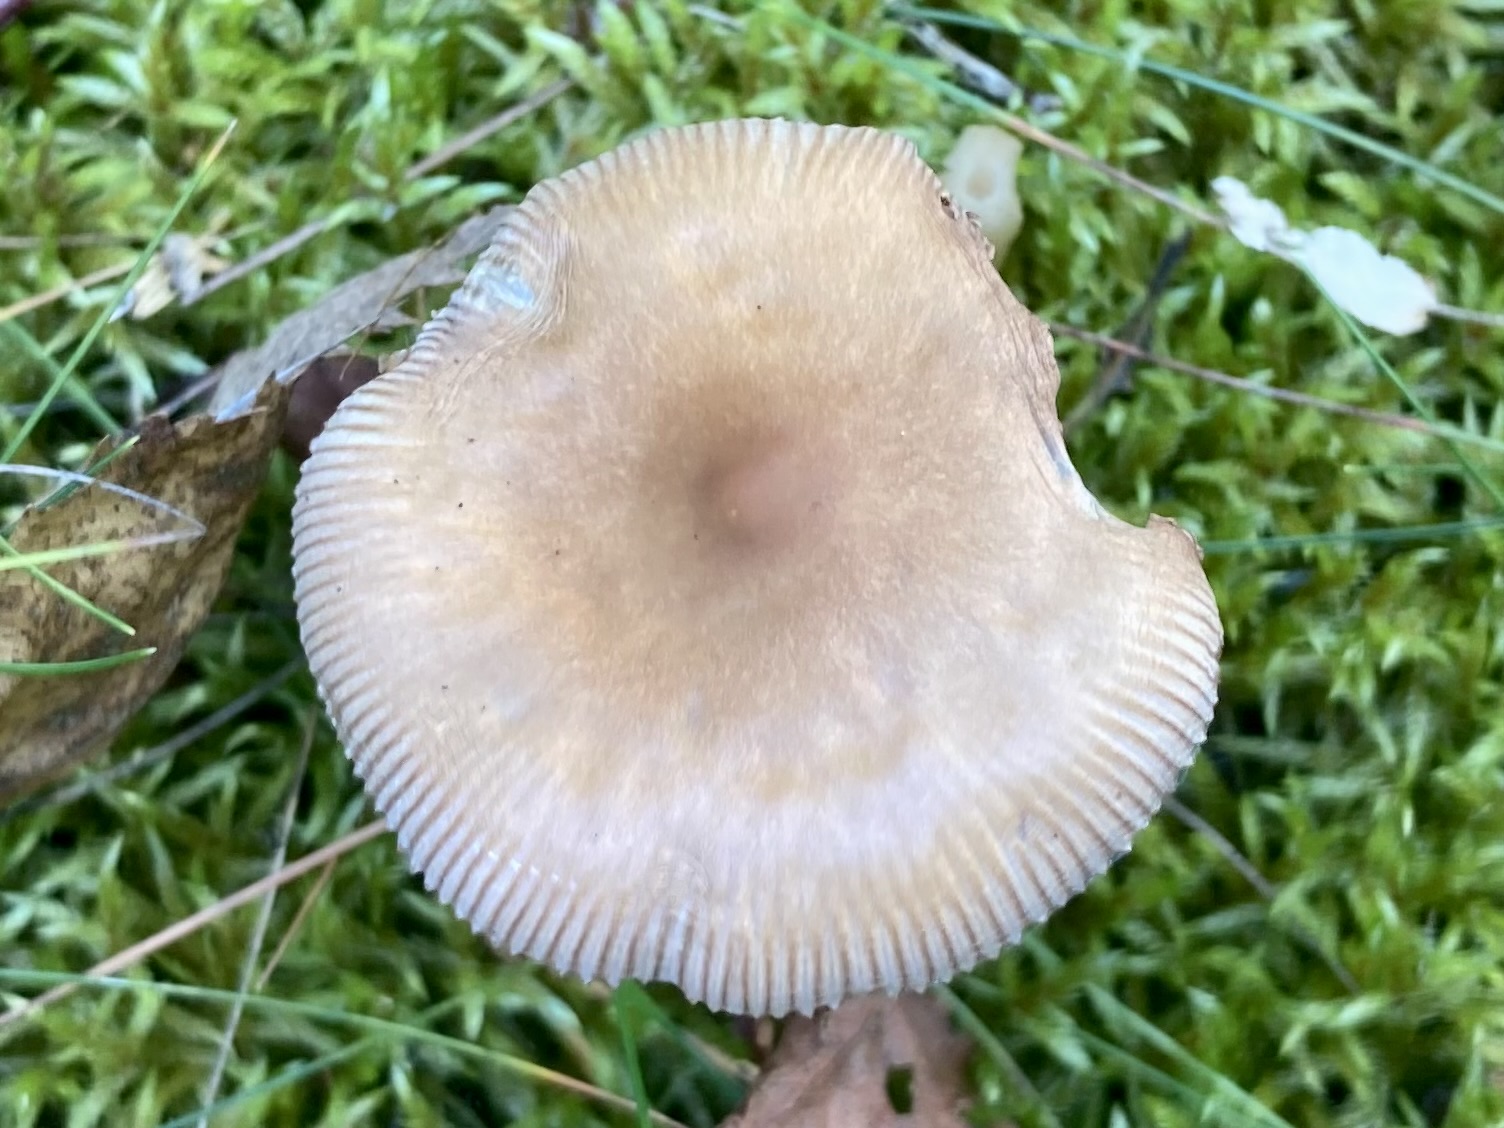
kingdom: Fungi
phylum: Basidiomycota
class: Agaricomycetes
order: Agaricales
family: Amanitaceae
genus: Amanita
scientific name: Amanita fulva
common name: brun kam-fluesvamp
